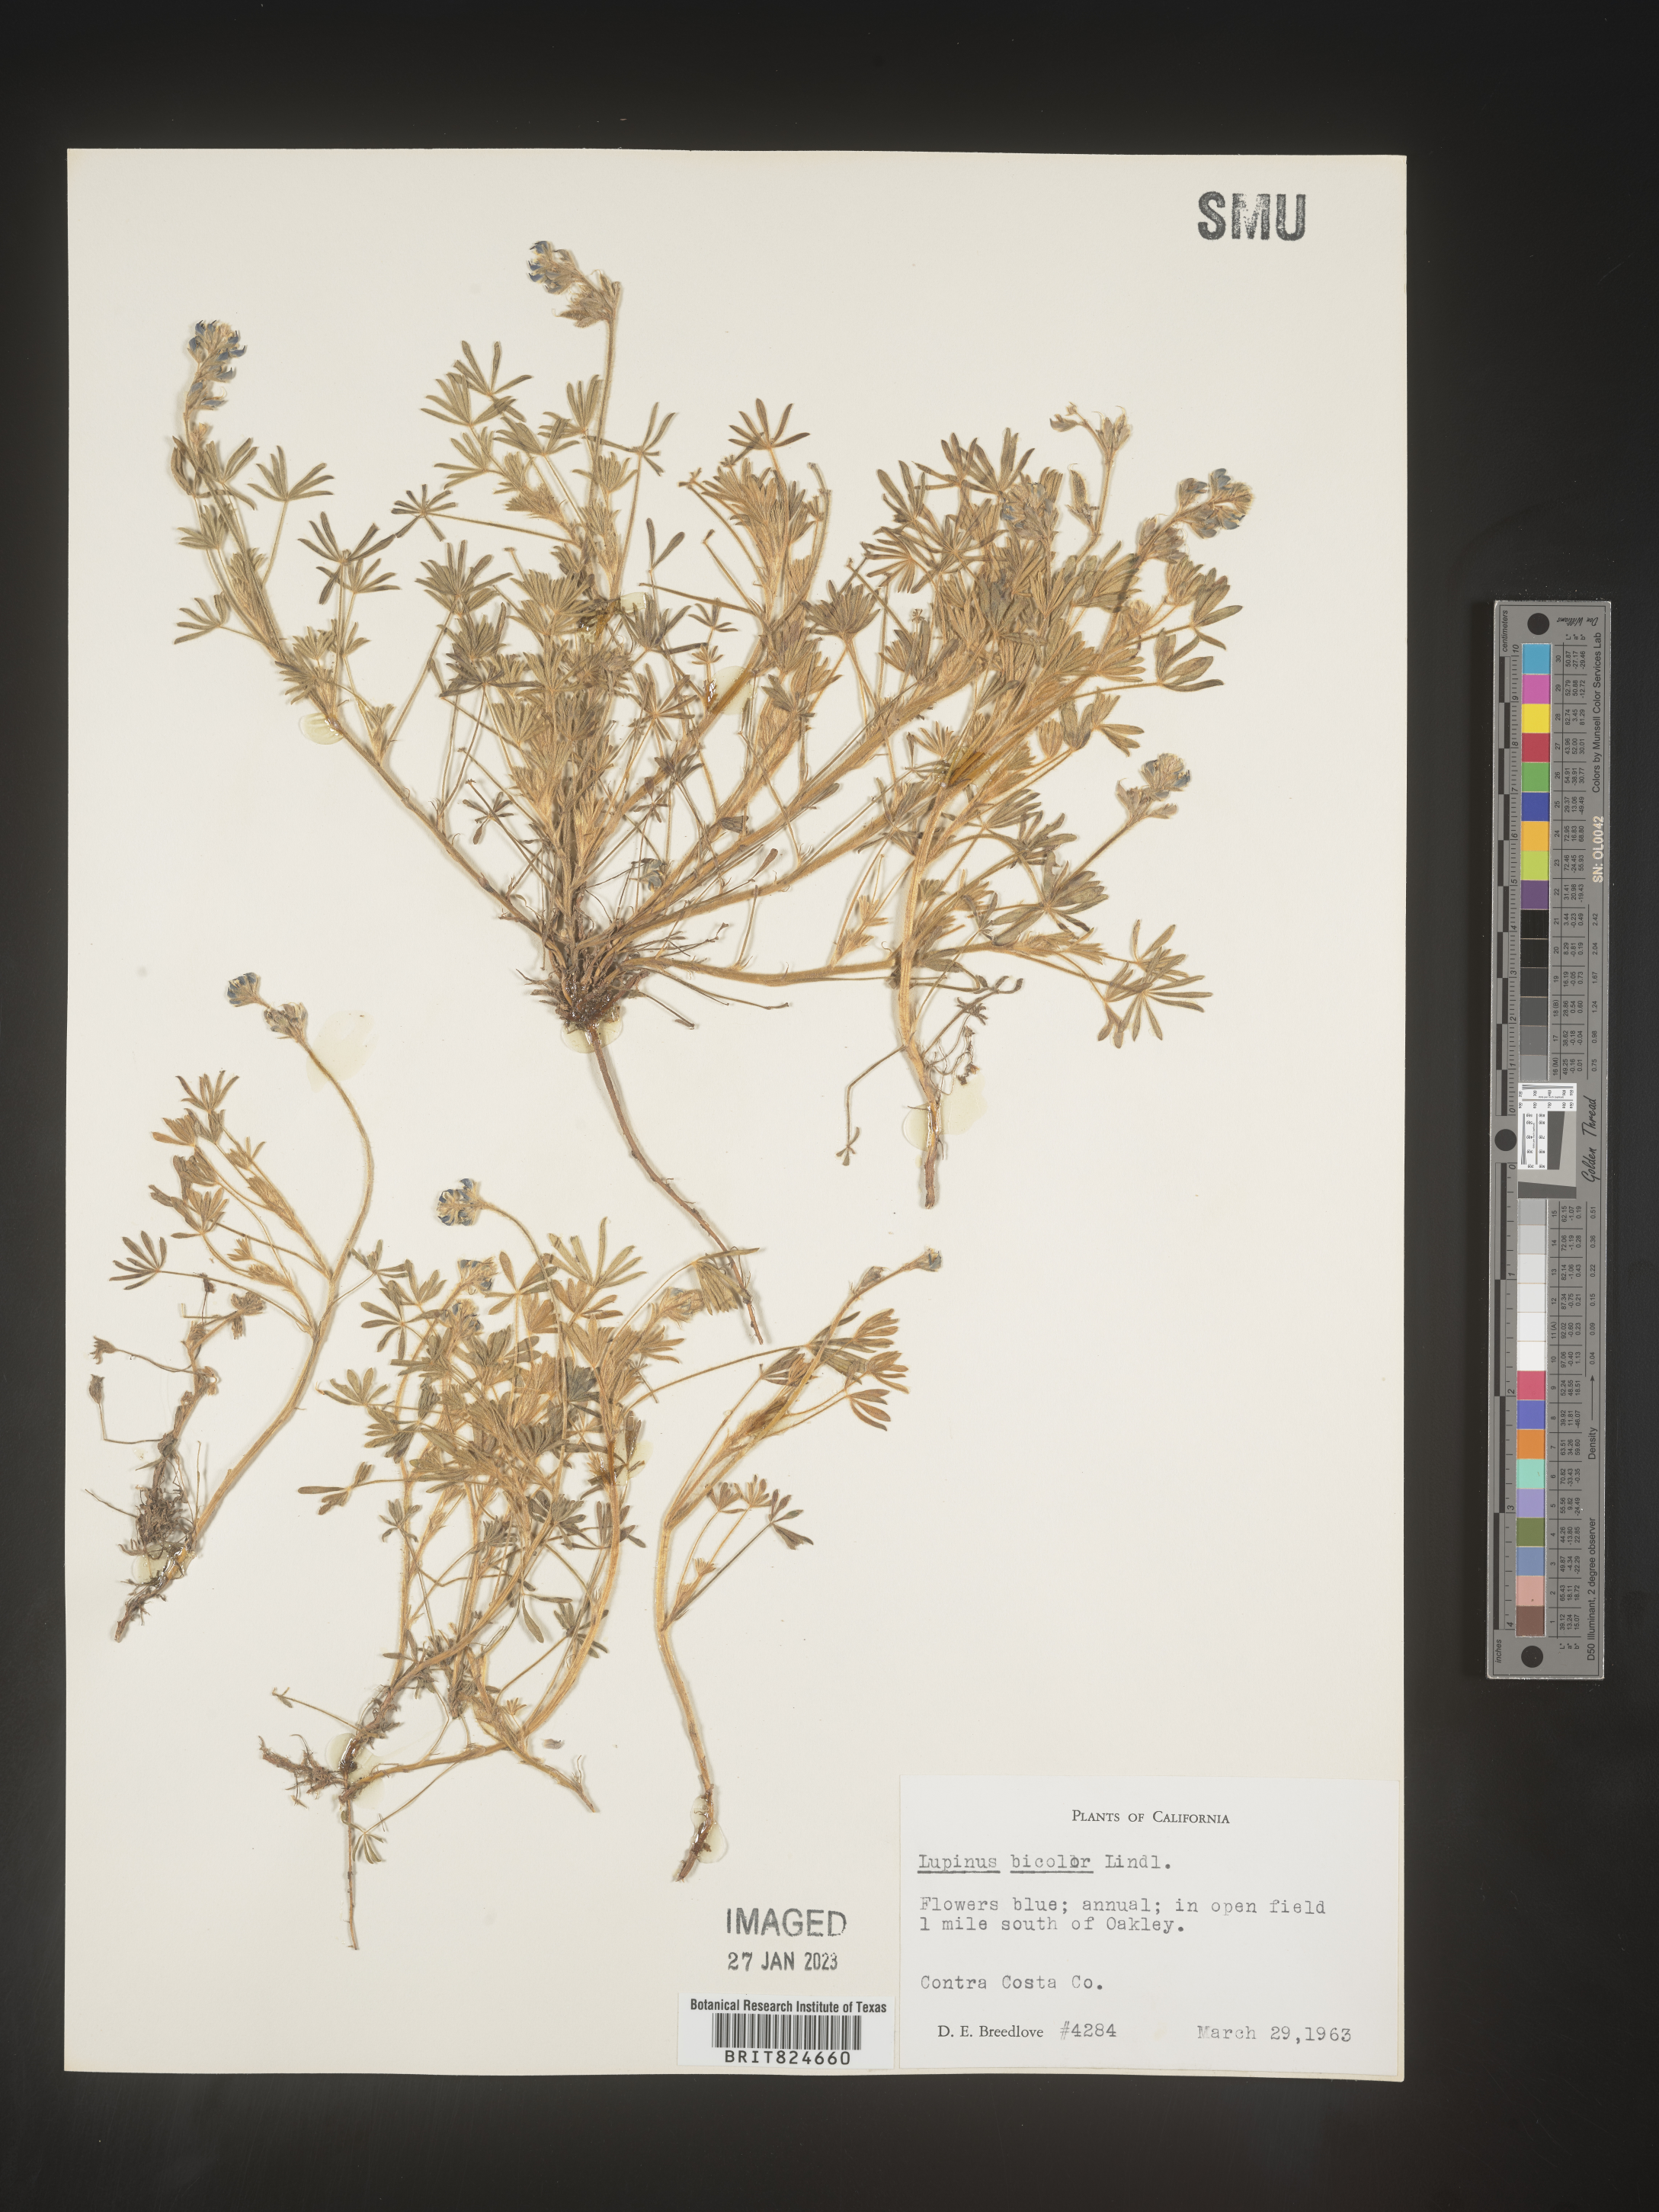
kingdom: Plantae
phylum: Tracheophyta
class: Magnoliopsida
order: Fabales
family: Fabaceae
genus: Lupinus
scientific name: Lupinus bicolor
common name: Miniature lupine
